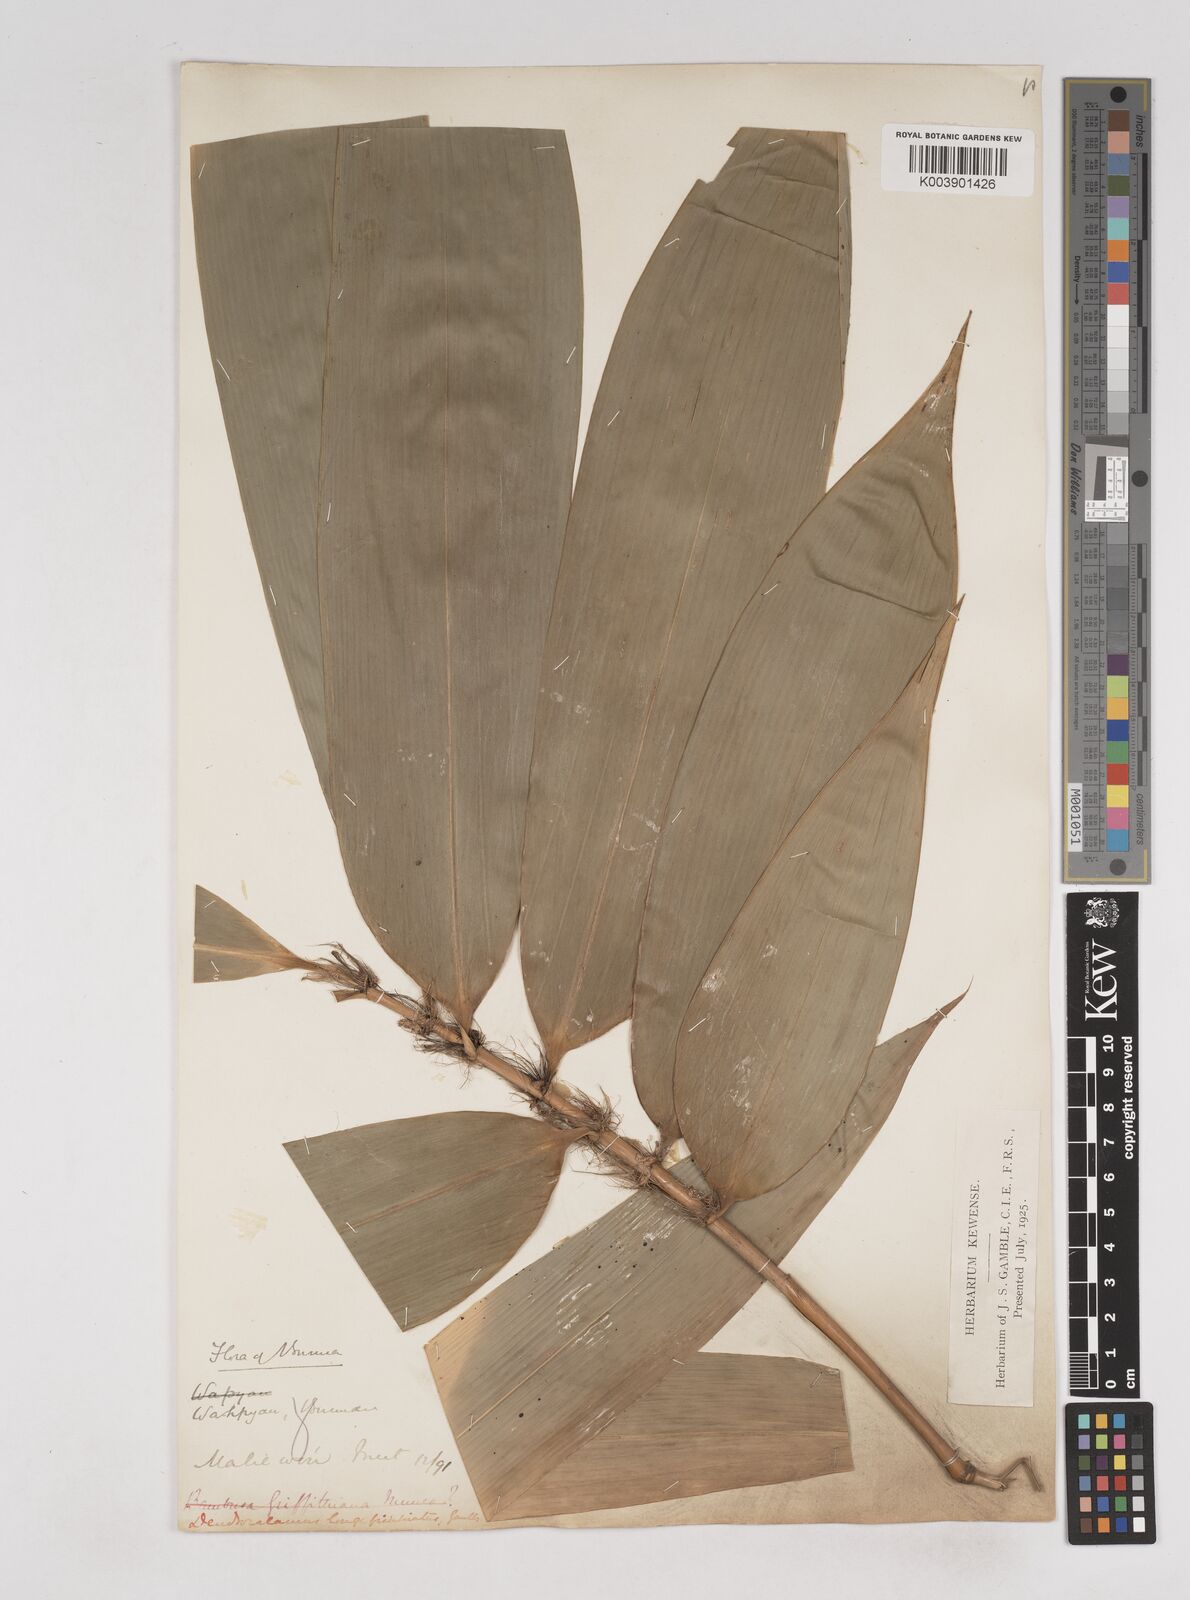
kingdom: Plantae
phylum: Tracheophyta
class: Liliopsida
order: Poales
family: Poaceae
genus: Schizostachyum
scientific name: Schizostachyum
